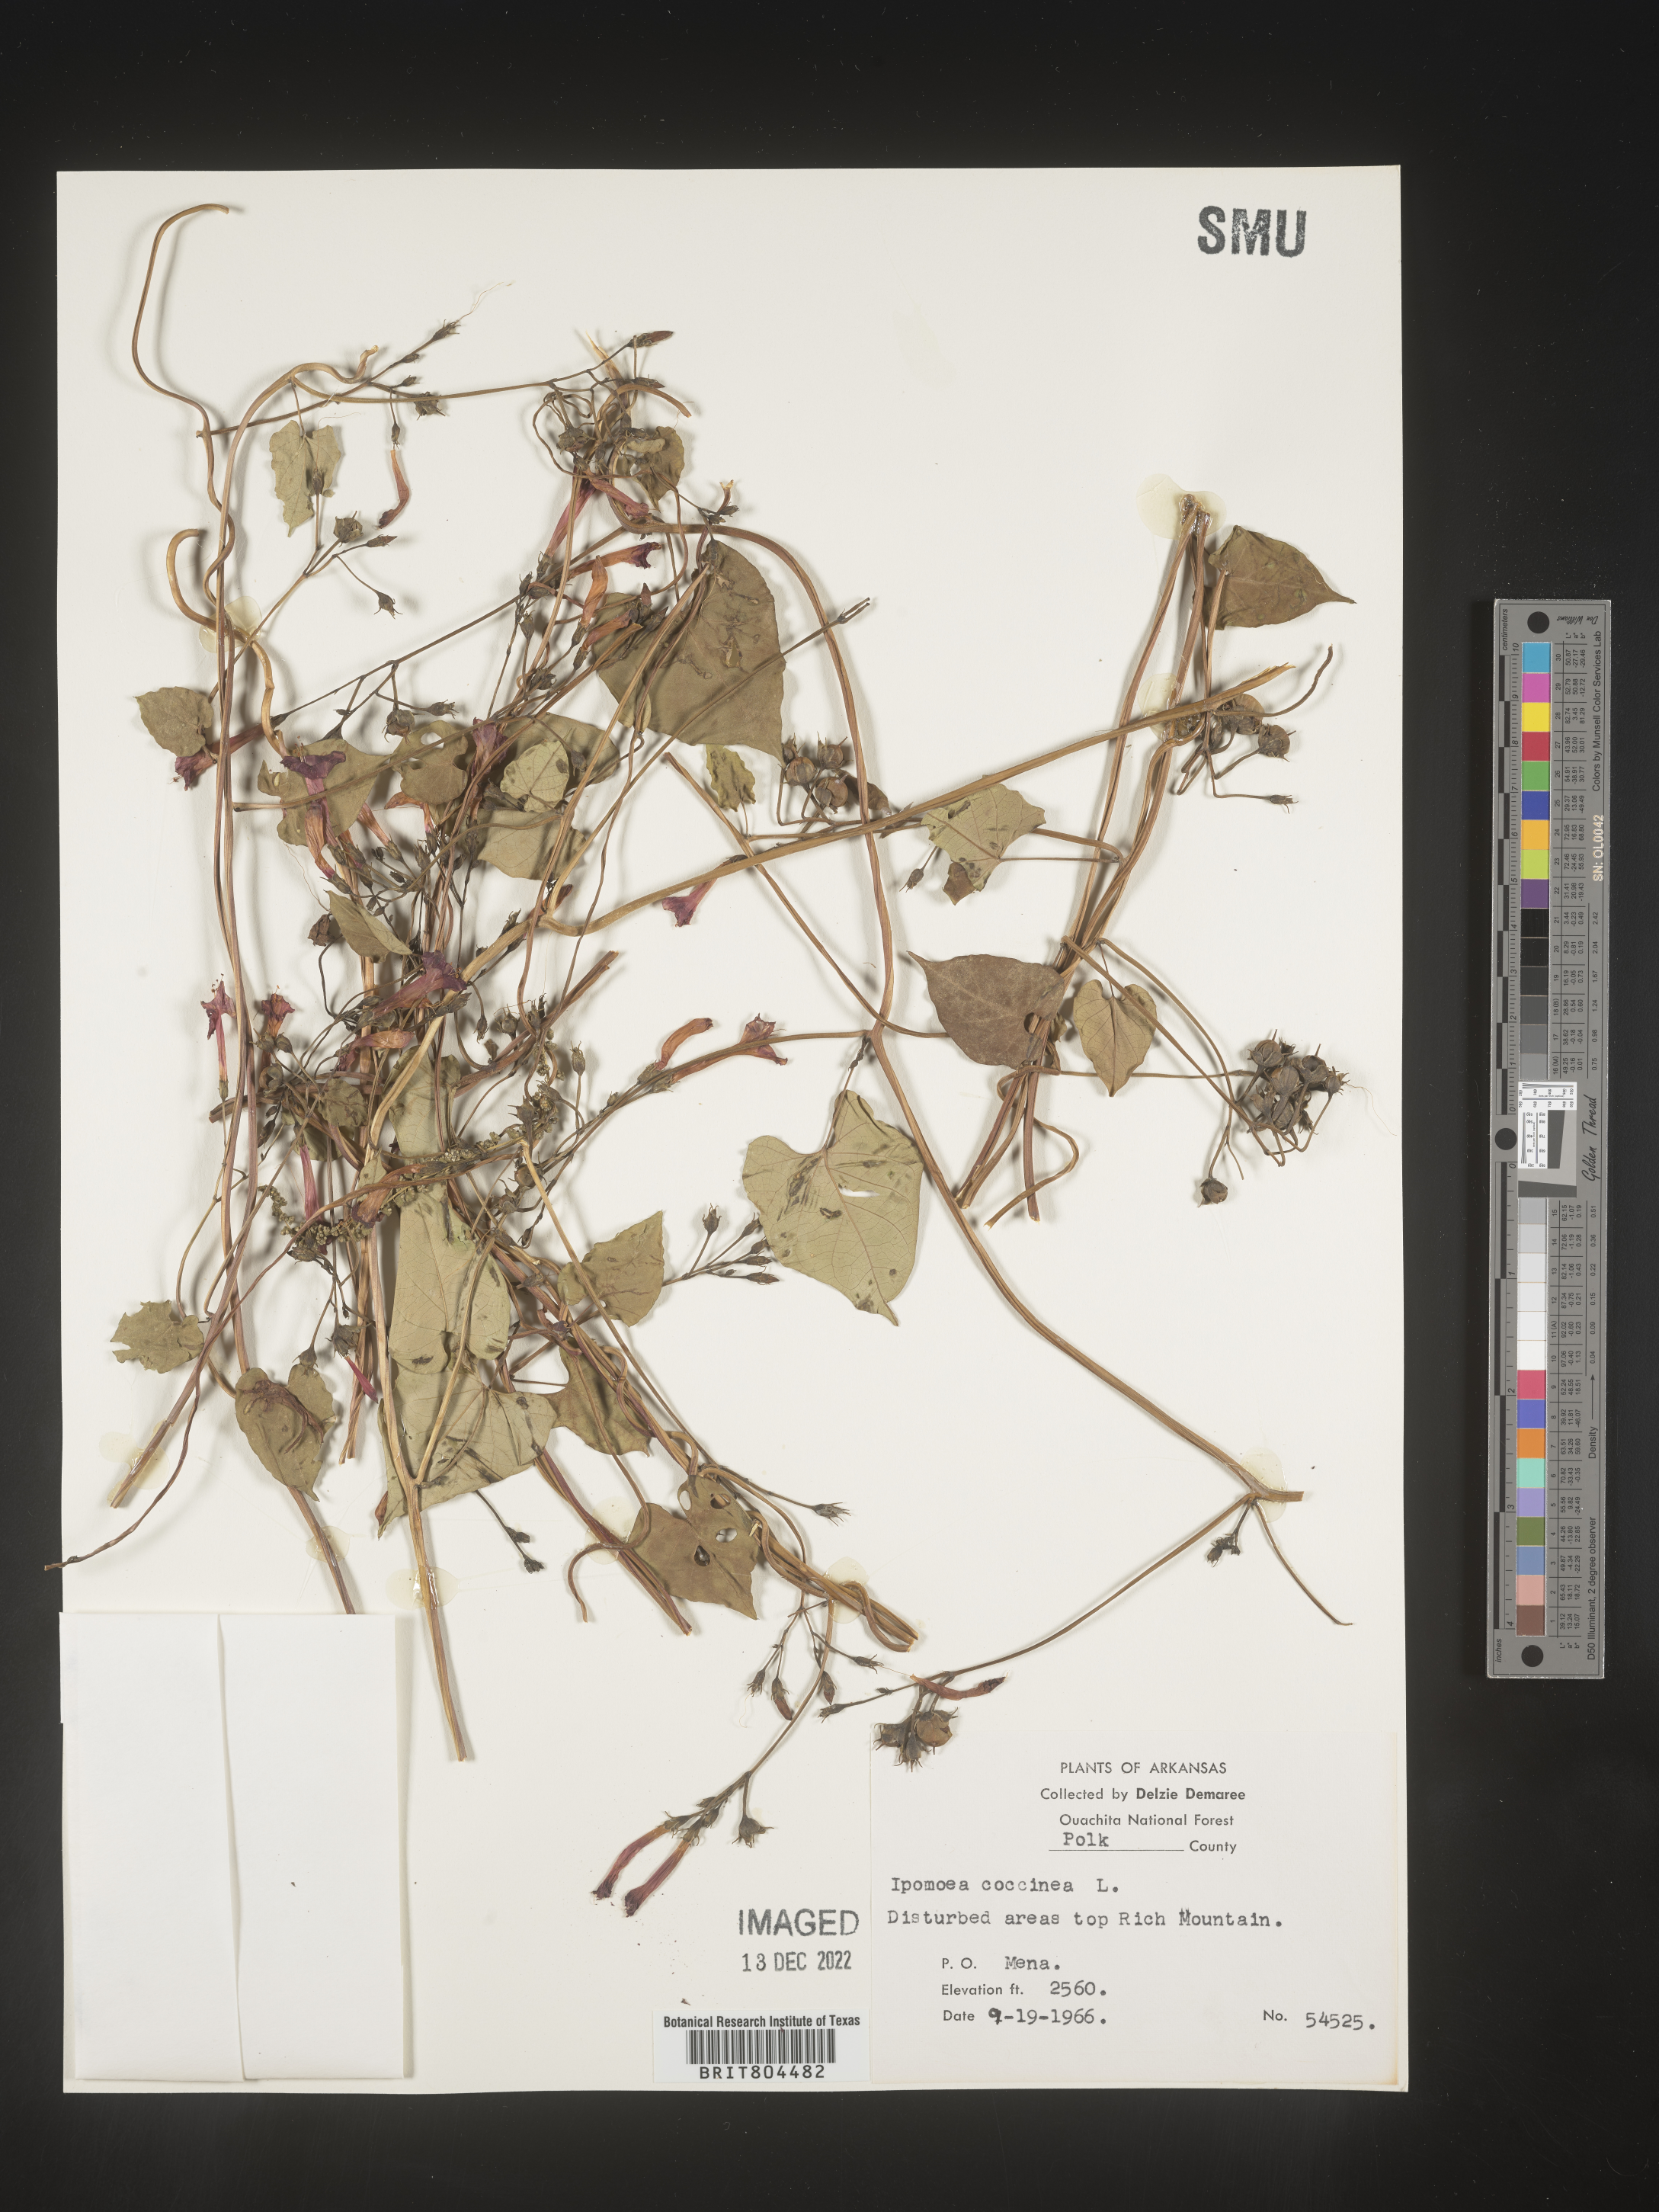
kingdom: Plantae
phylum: Tracheophyta
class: Magnoliopsida
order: Solanales
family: Convolvulaceae
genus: Ipomoea
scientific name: Ipomoea coccinea
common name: Red morning-glory
